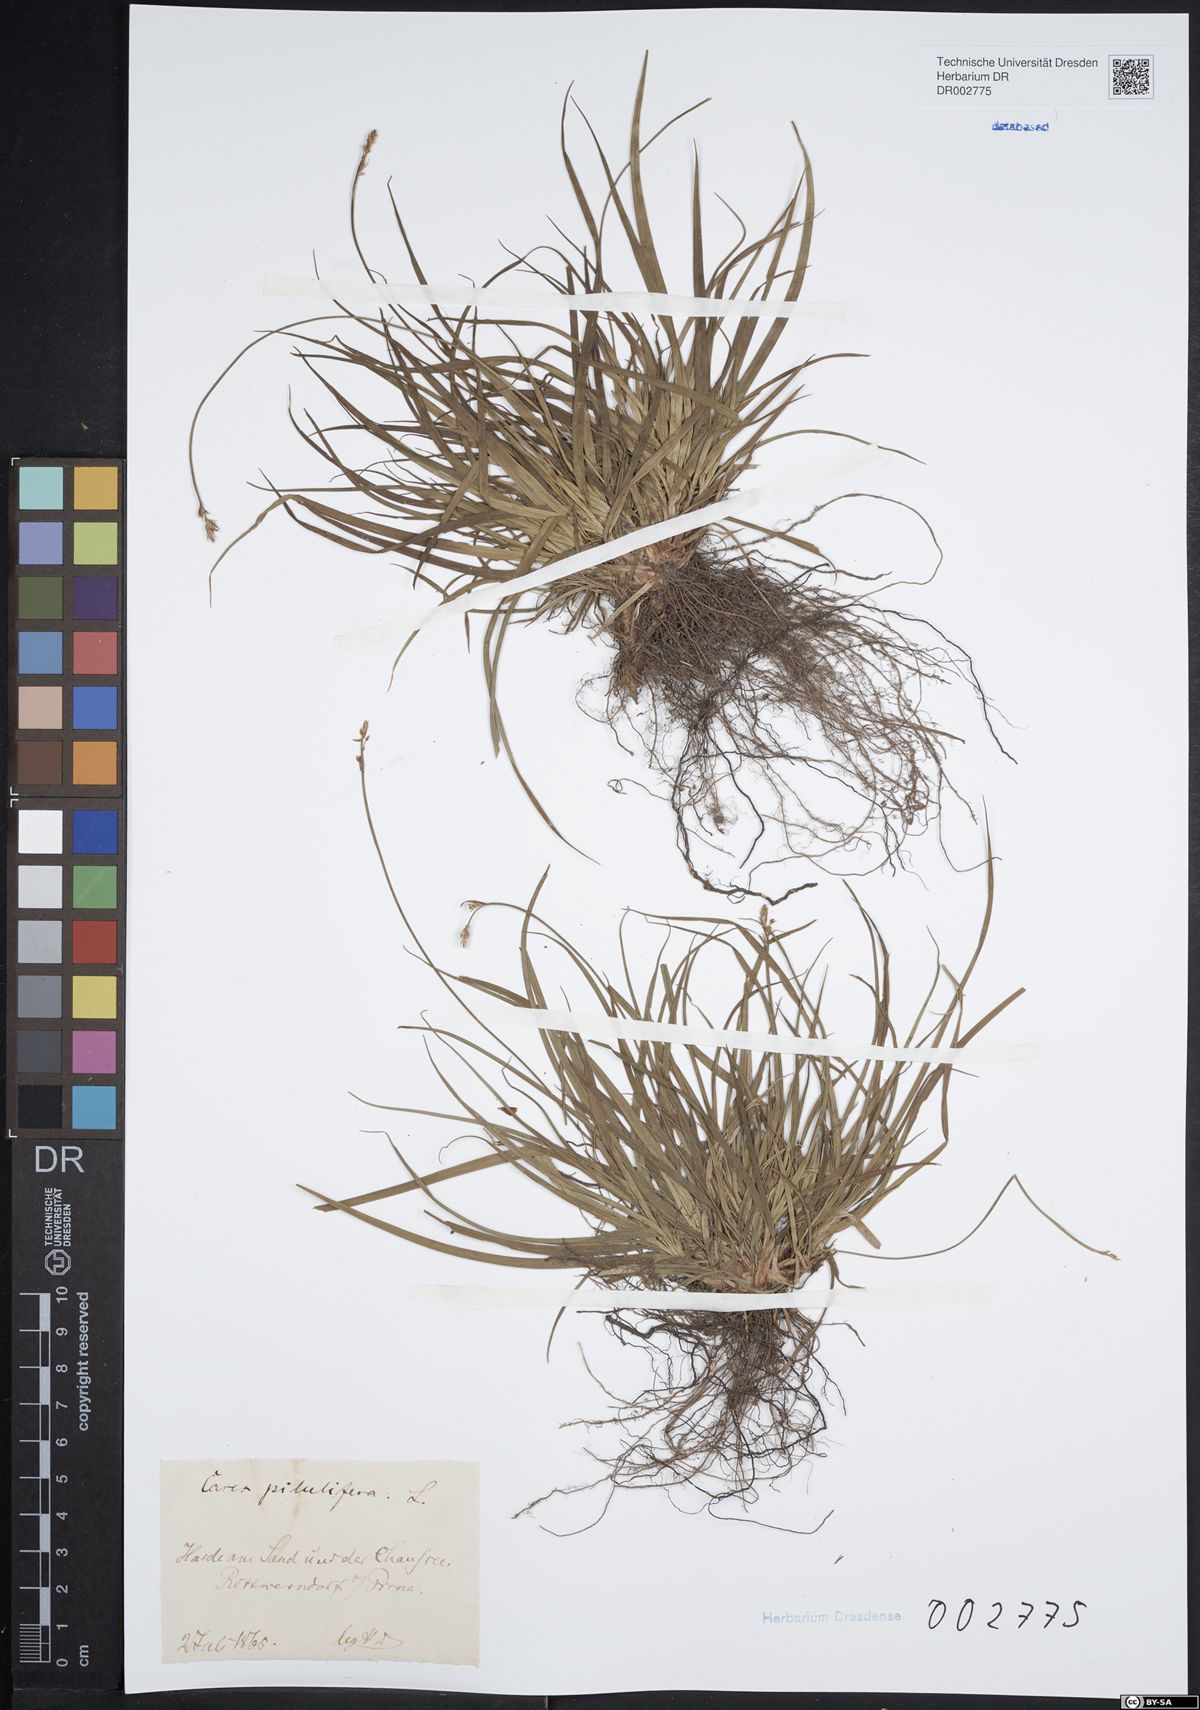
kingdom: Plantae
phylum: Tracheophyta
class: Liliopsida
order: Poales
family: Cyperaceae
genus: Carex
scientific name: Carex caryophyllea
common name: Spring sedge
